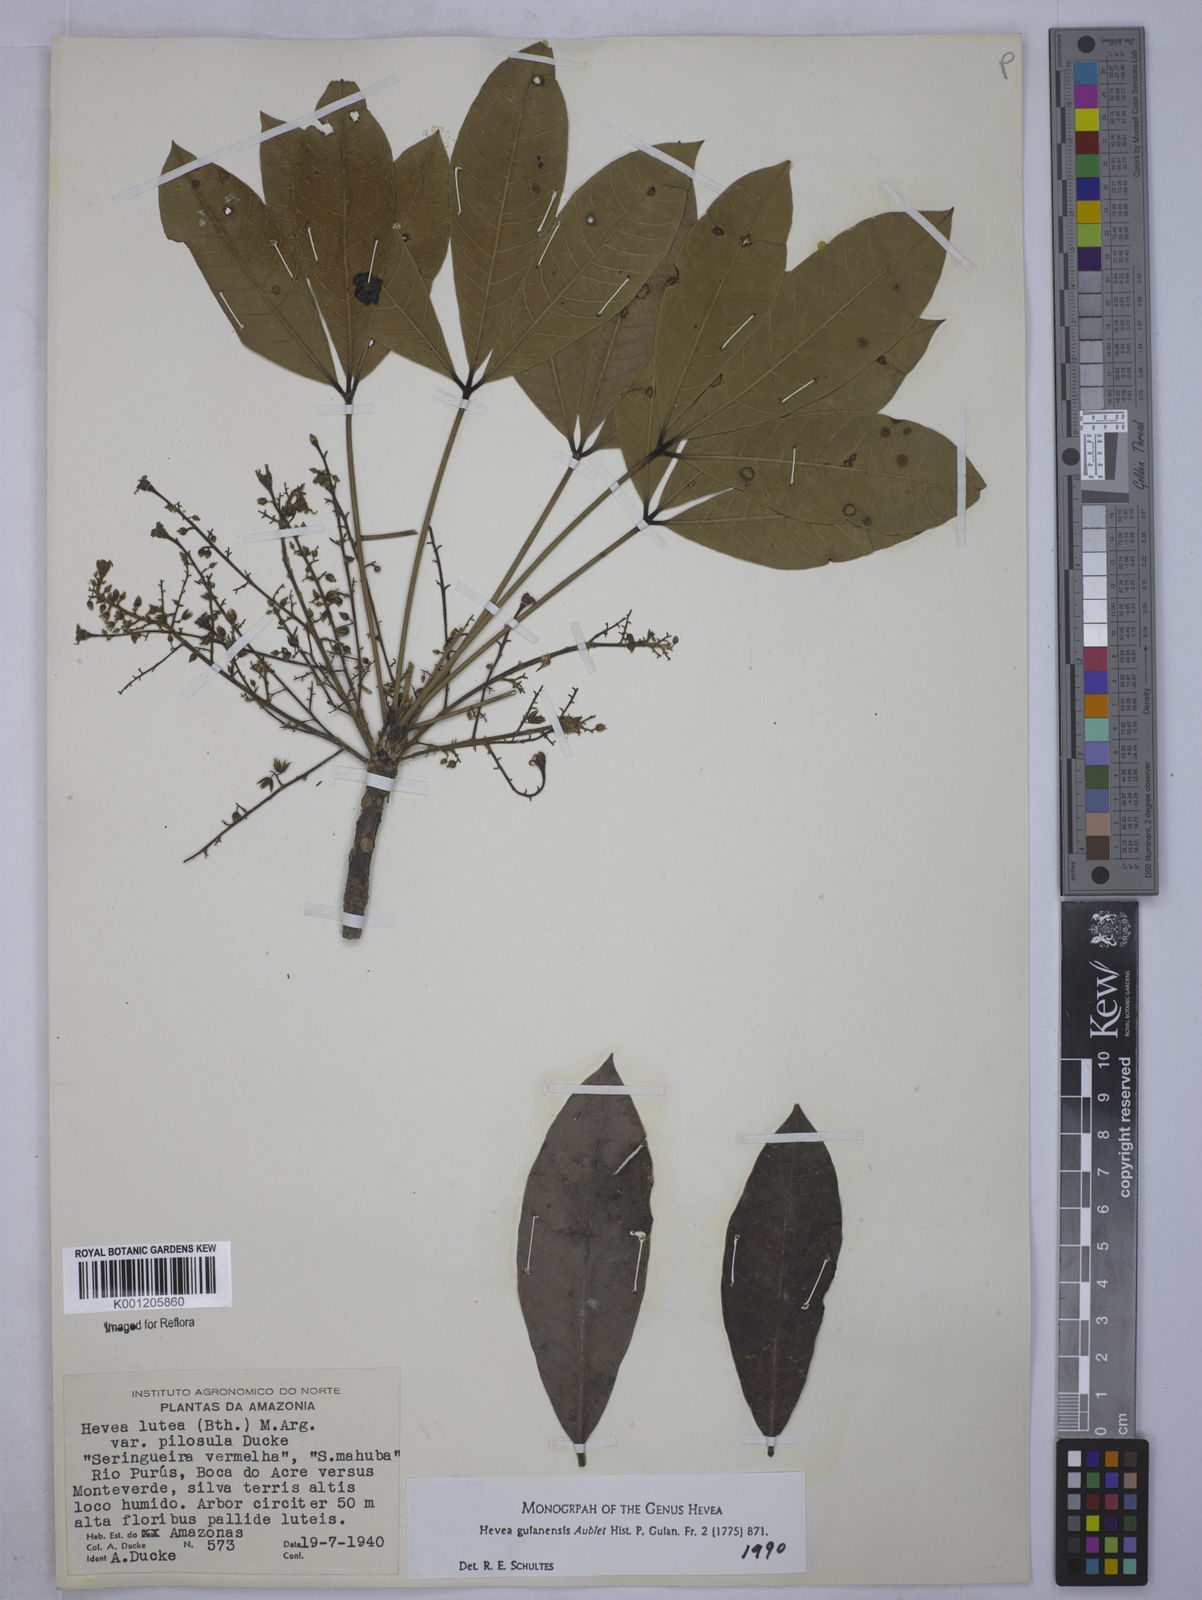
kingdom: Plantae
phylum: Tracheophyta
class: Magnoliopsida
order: Malpighiales
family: Euphorbiaceae
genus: Hevea
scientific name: Hevea guianensis
